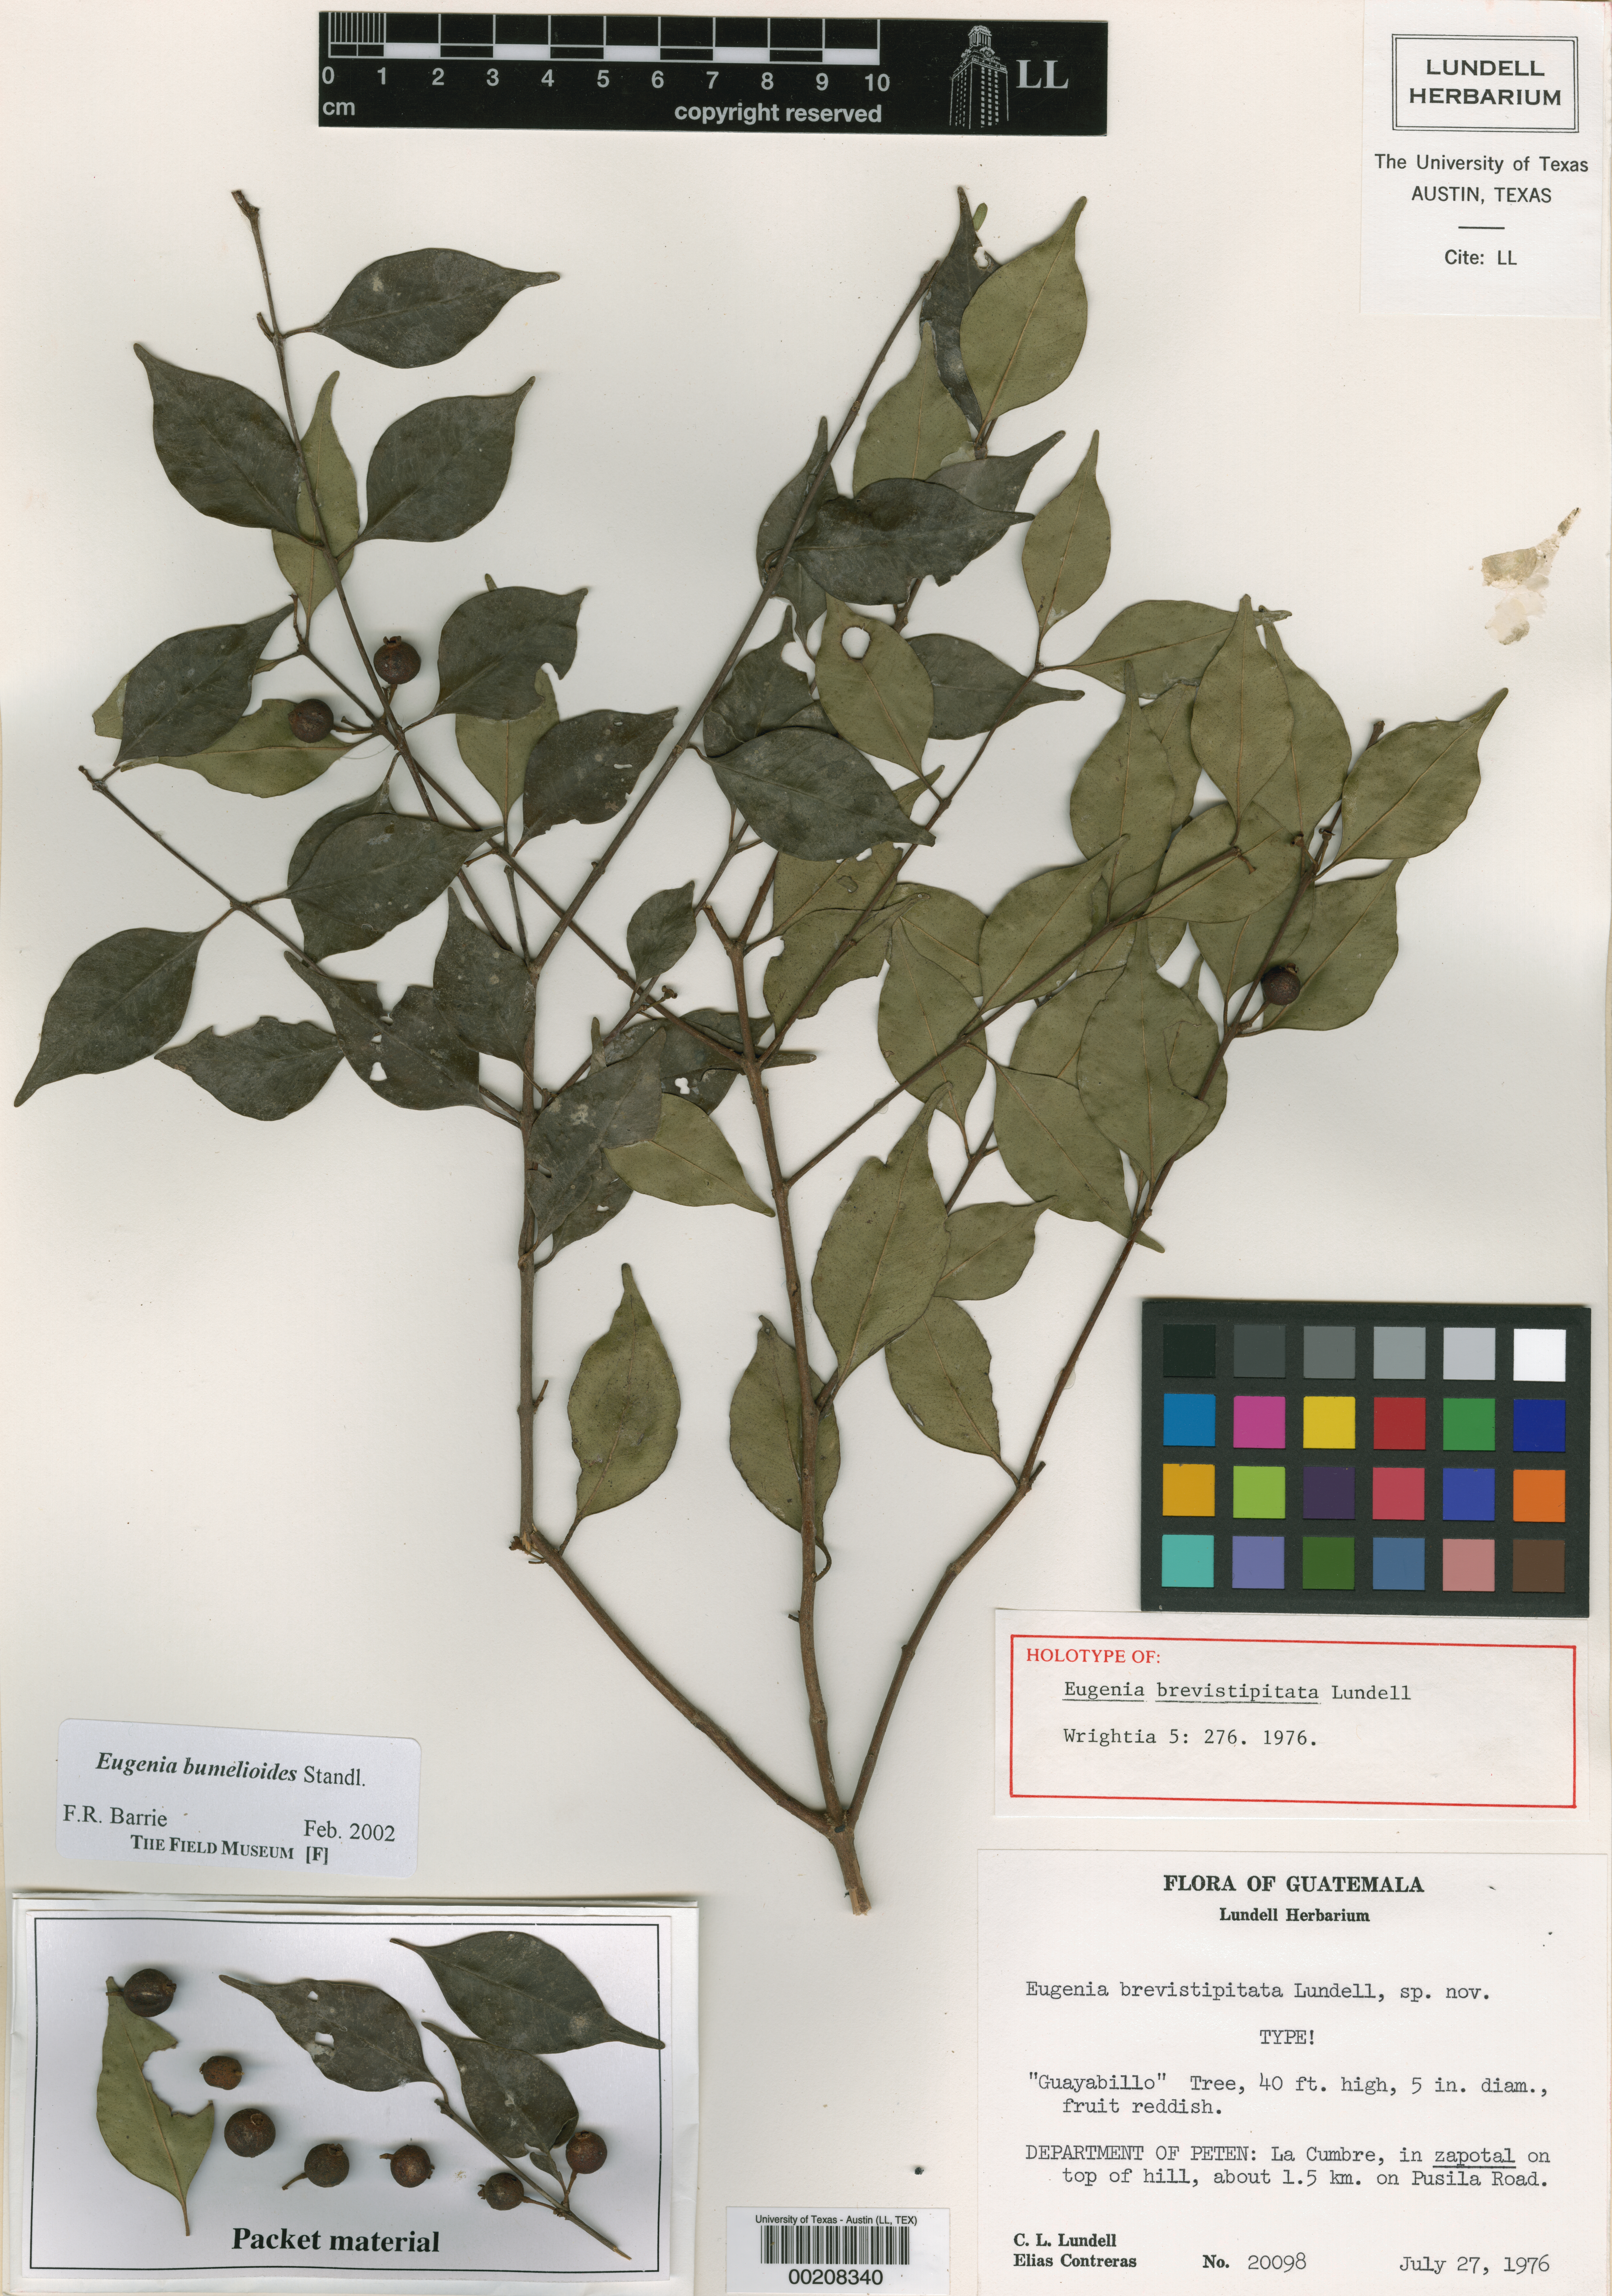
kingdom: Plantae
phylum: Tracheophyta
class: Magnoliopsida
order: Myrtales
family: Myrtaceae
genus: Eugenia
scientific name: Eugenia bumelioides
